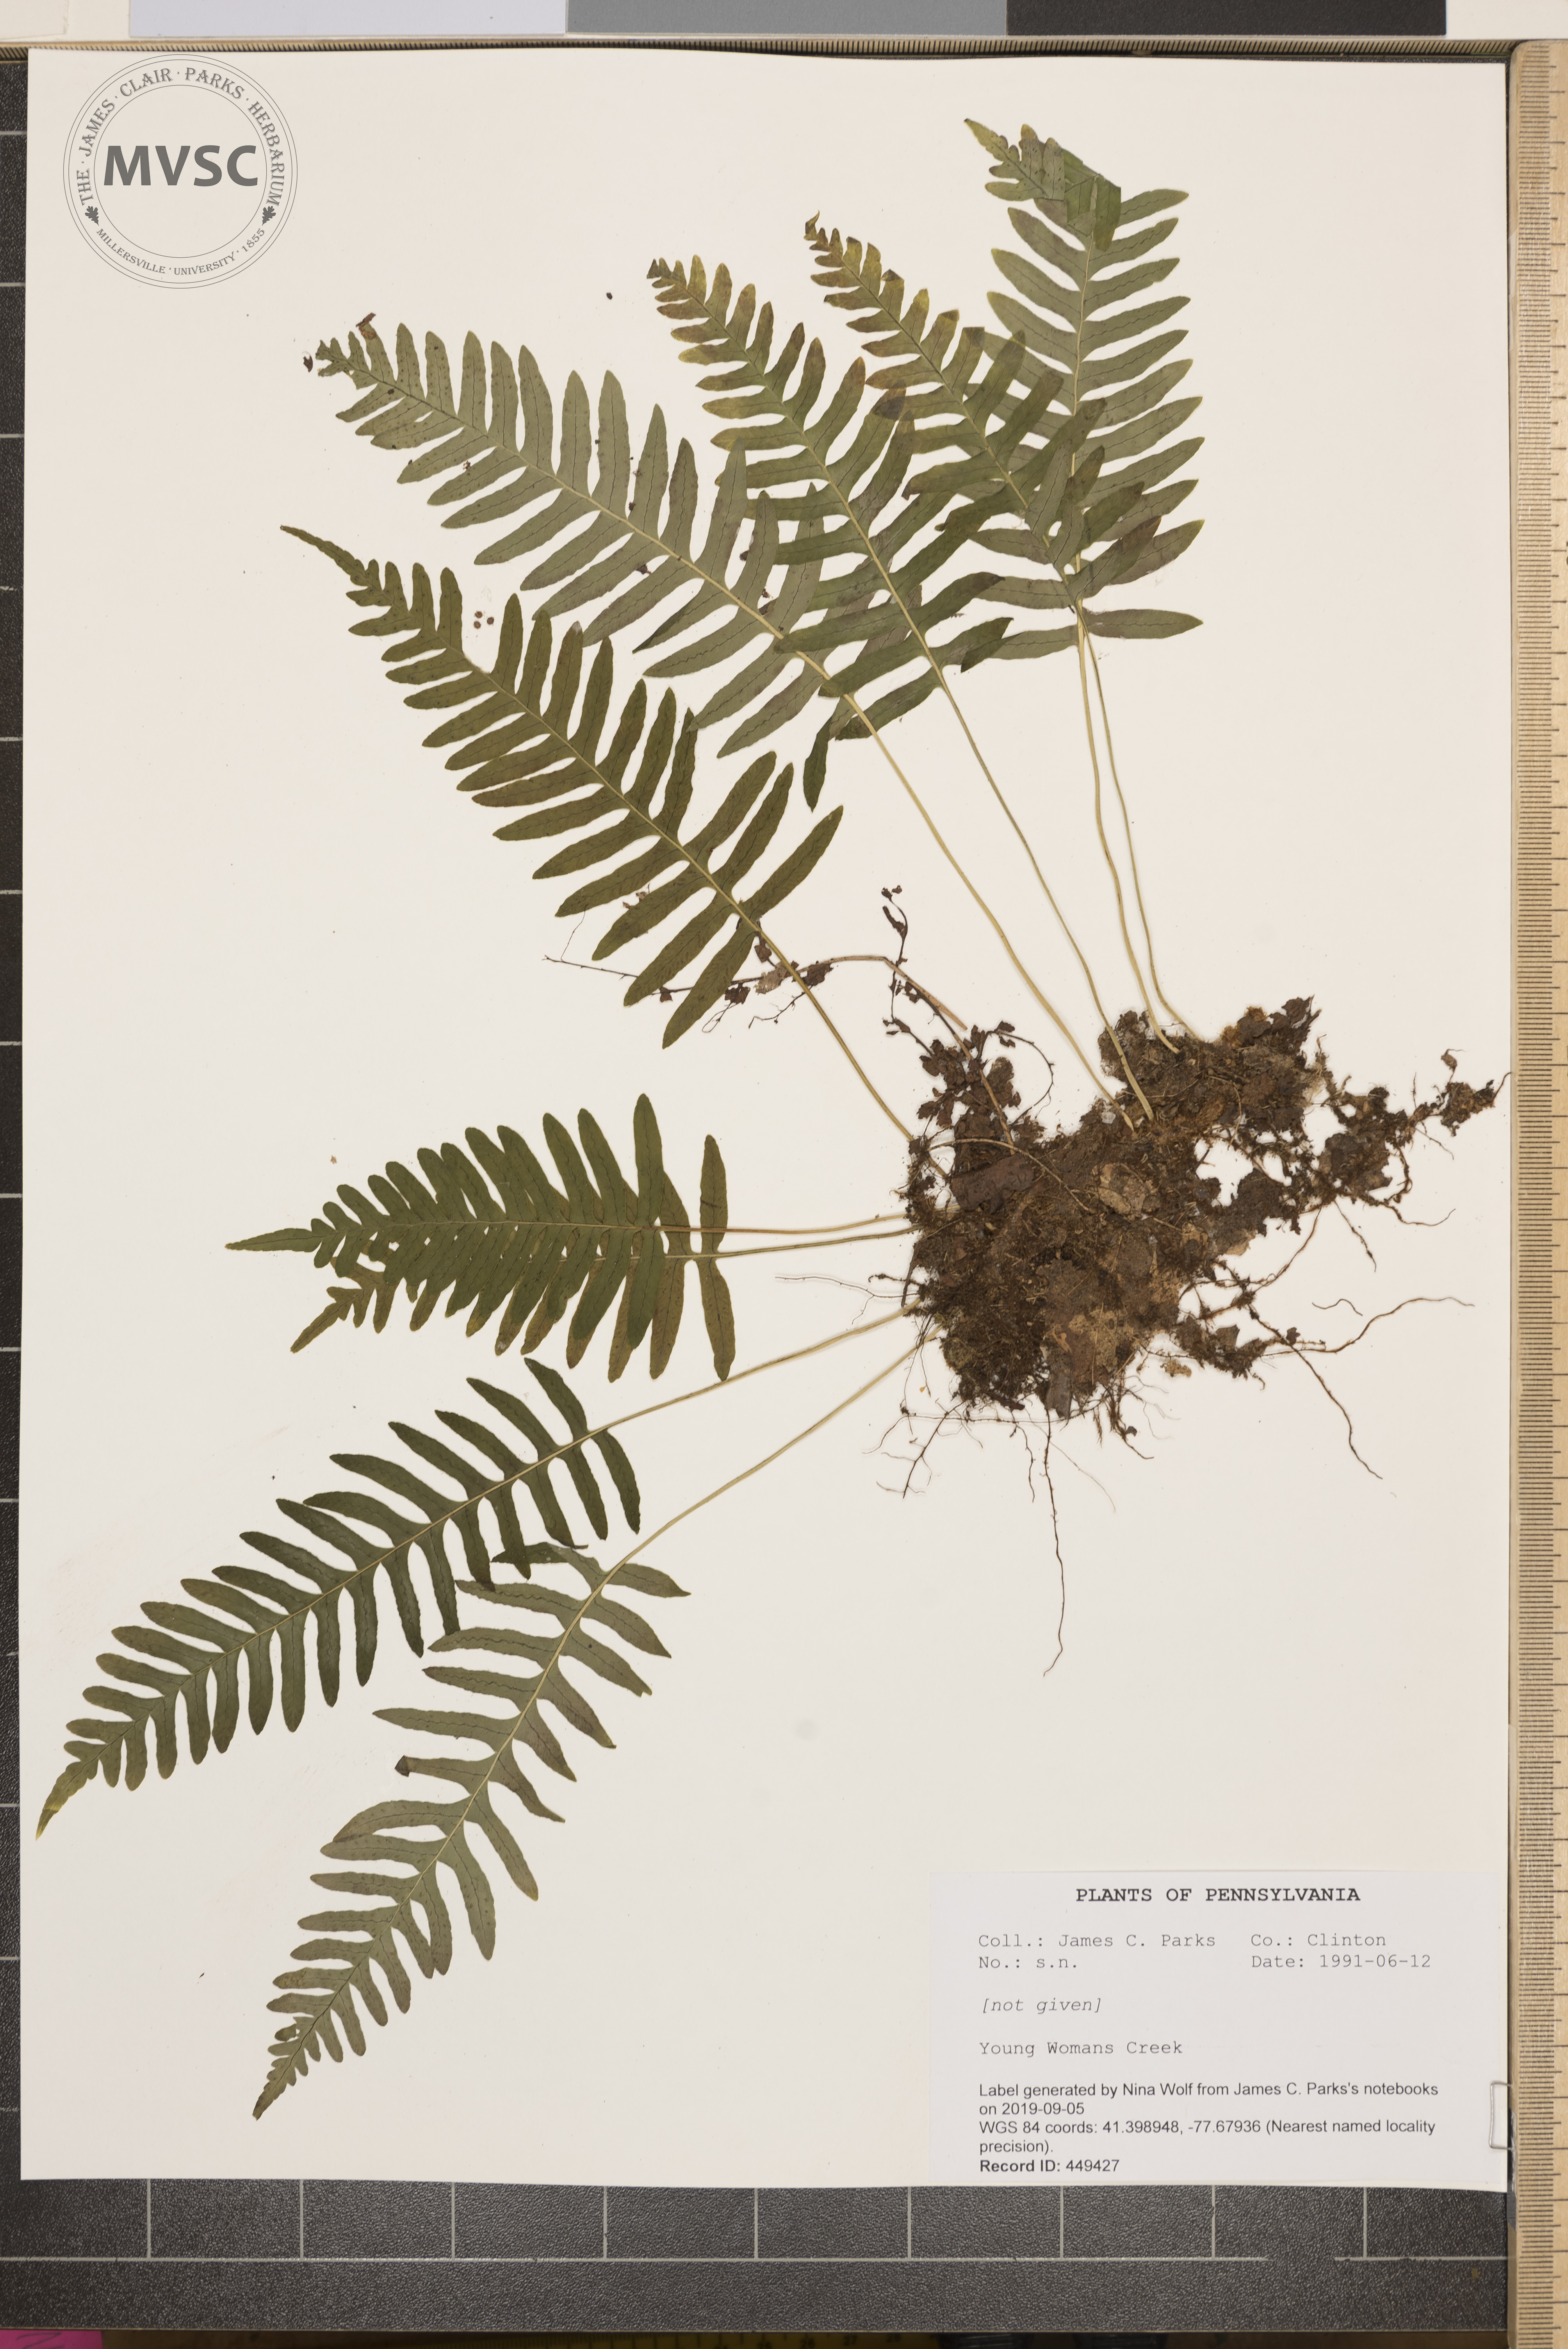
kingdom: Plantae
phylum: Tracheophyta
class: Polypodiopsida
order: Polypodiales
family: Polypodiaceae
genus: Polypodium
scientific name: Polypodium appalachianum
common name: Appalachian polypody
